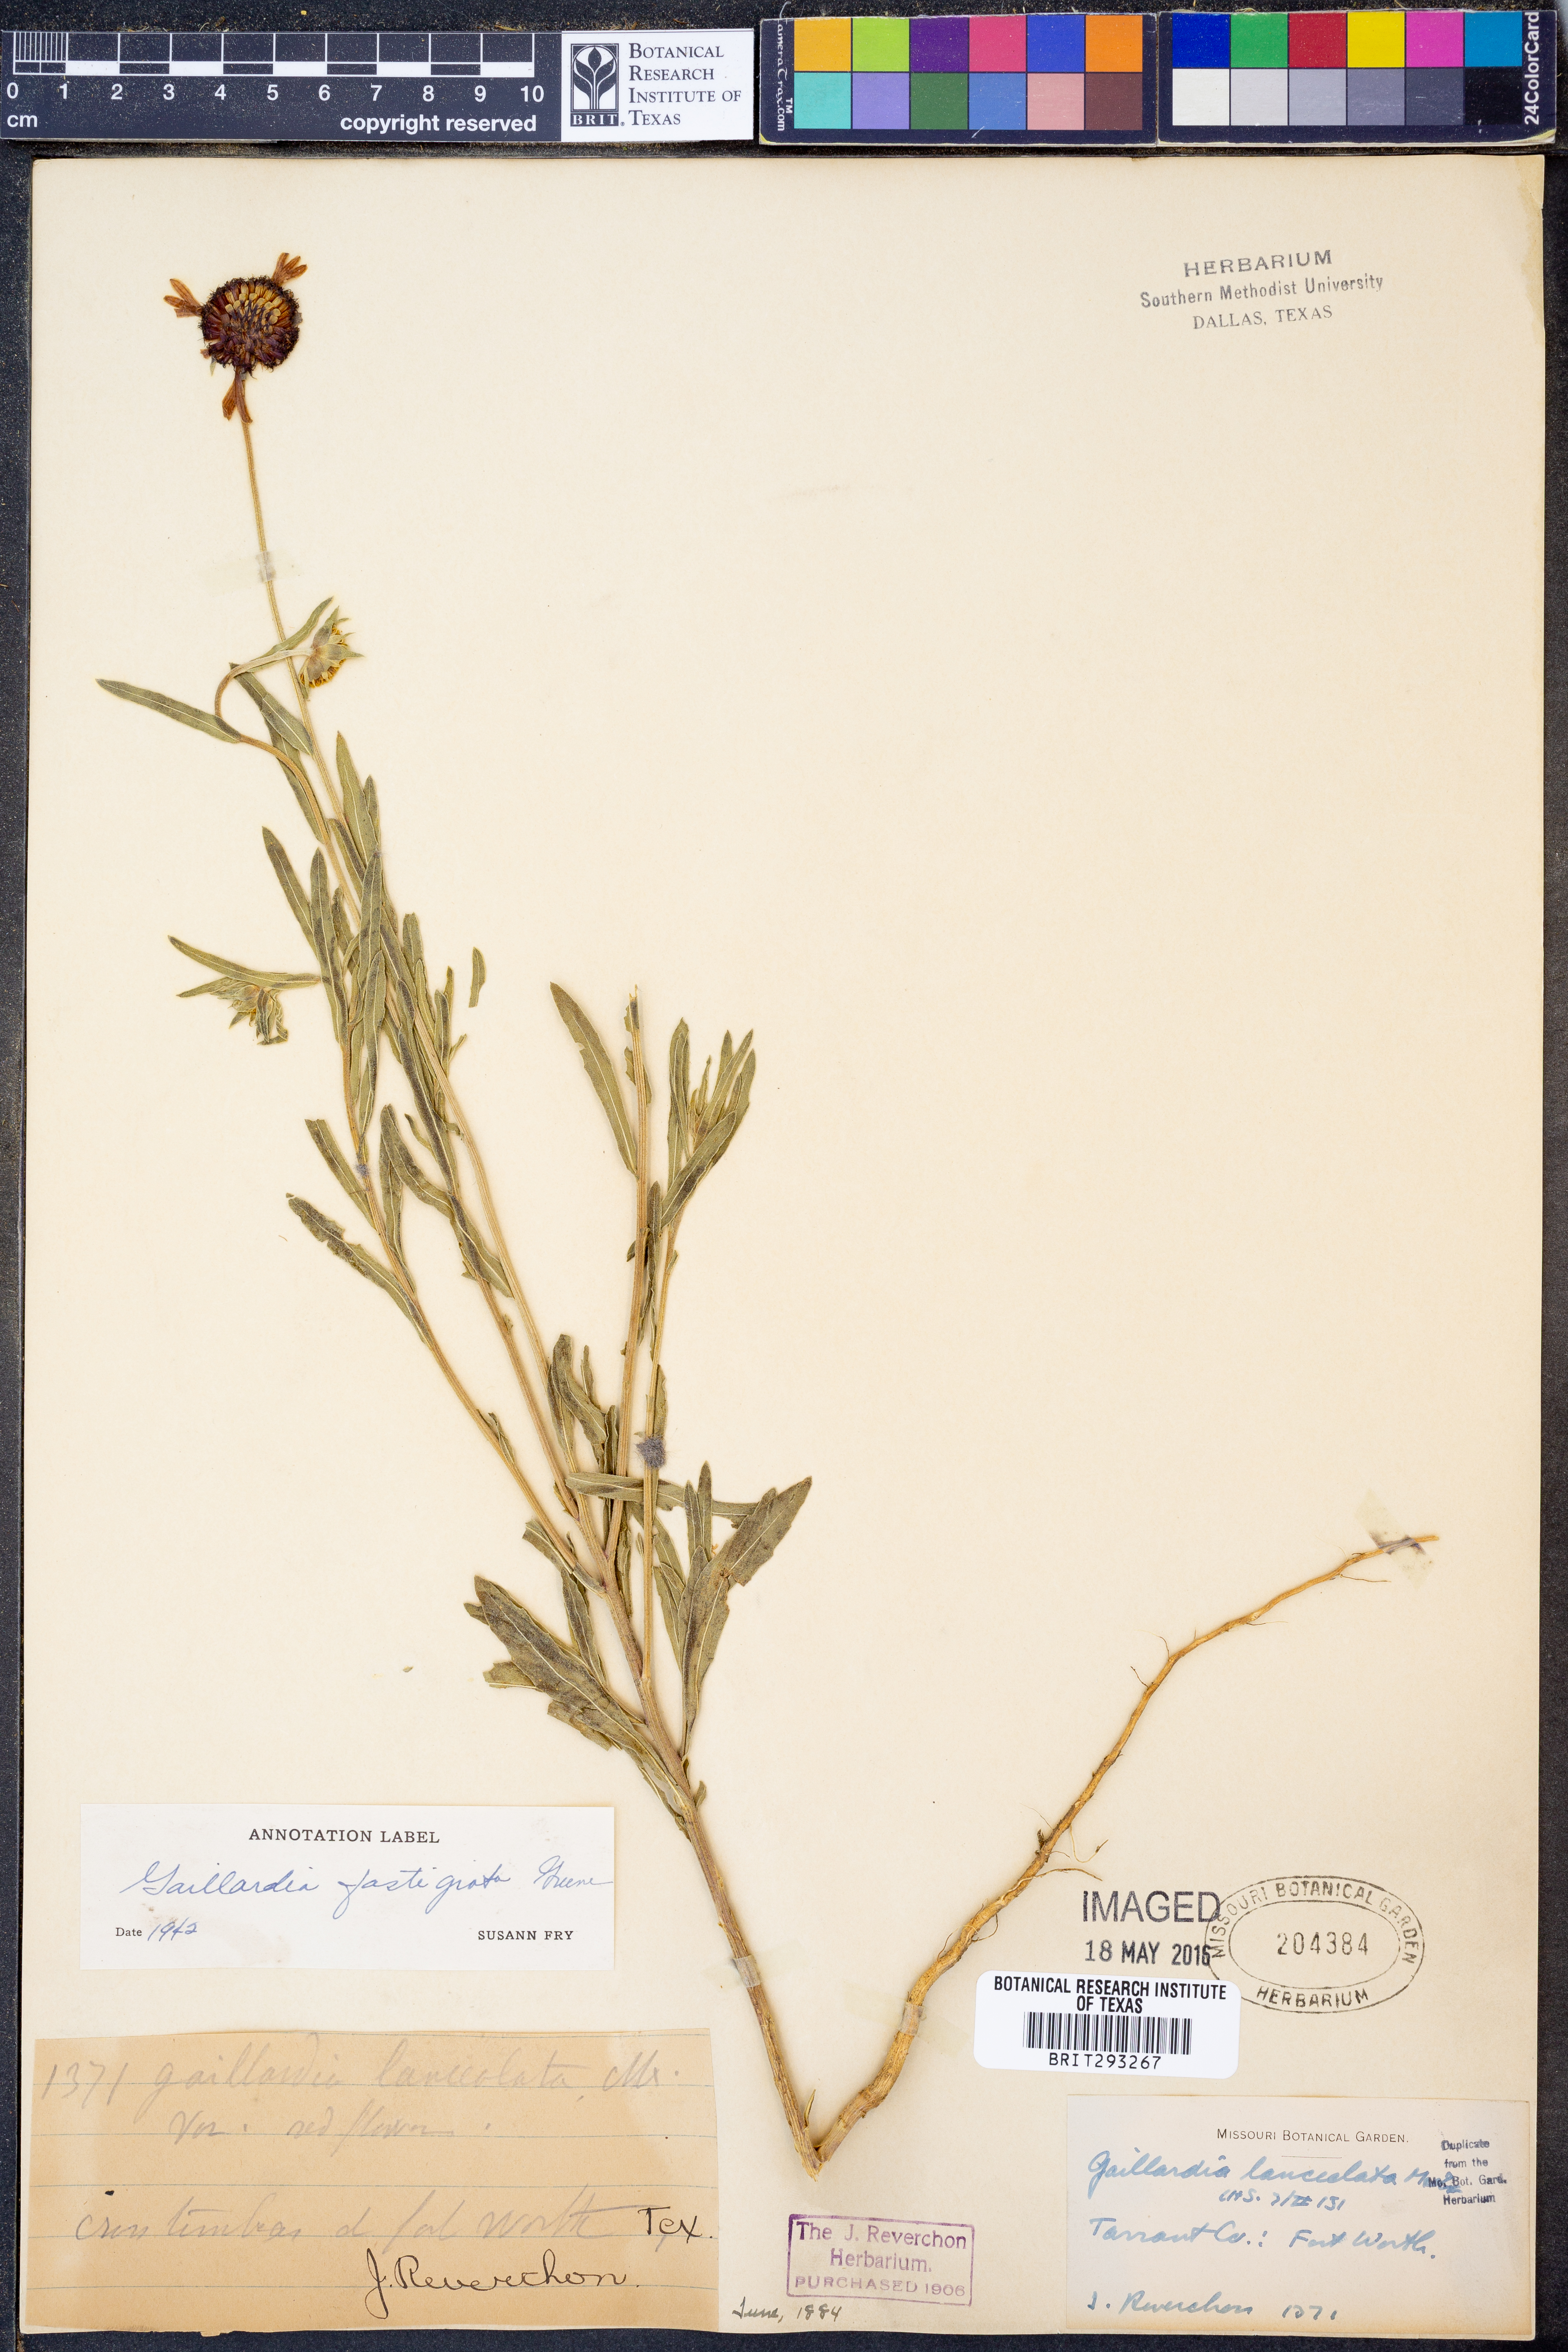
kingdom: Plantae
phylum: Tracheophyta
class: Magnoliopsida
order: Asterales
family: Asteraceae
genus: Gaillardia
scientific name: Gaillardia aestivalis
